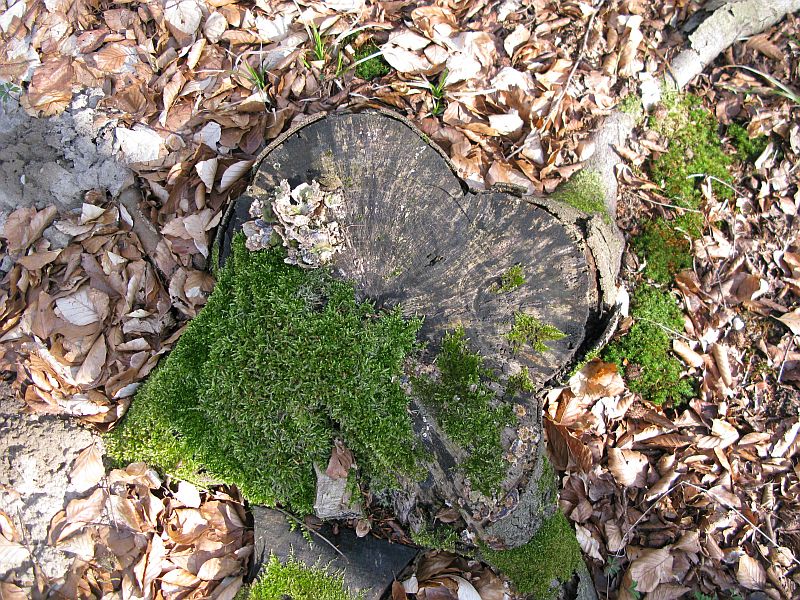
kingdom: Fungi
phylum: Ascomycota
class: Leotiomycetes
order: Helotiales
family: Helotiaceae
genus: Bispora
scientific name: Bispora pallescens
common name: måtte-snitskive
